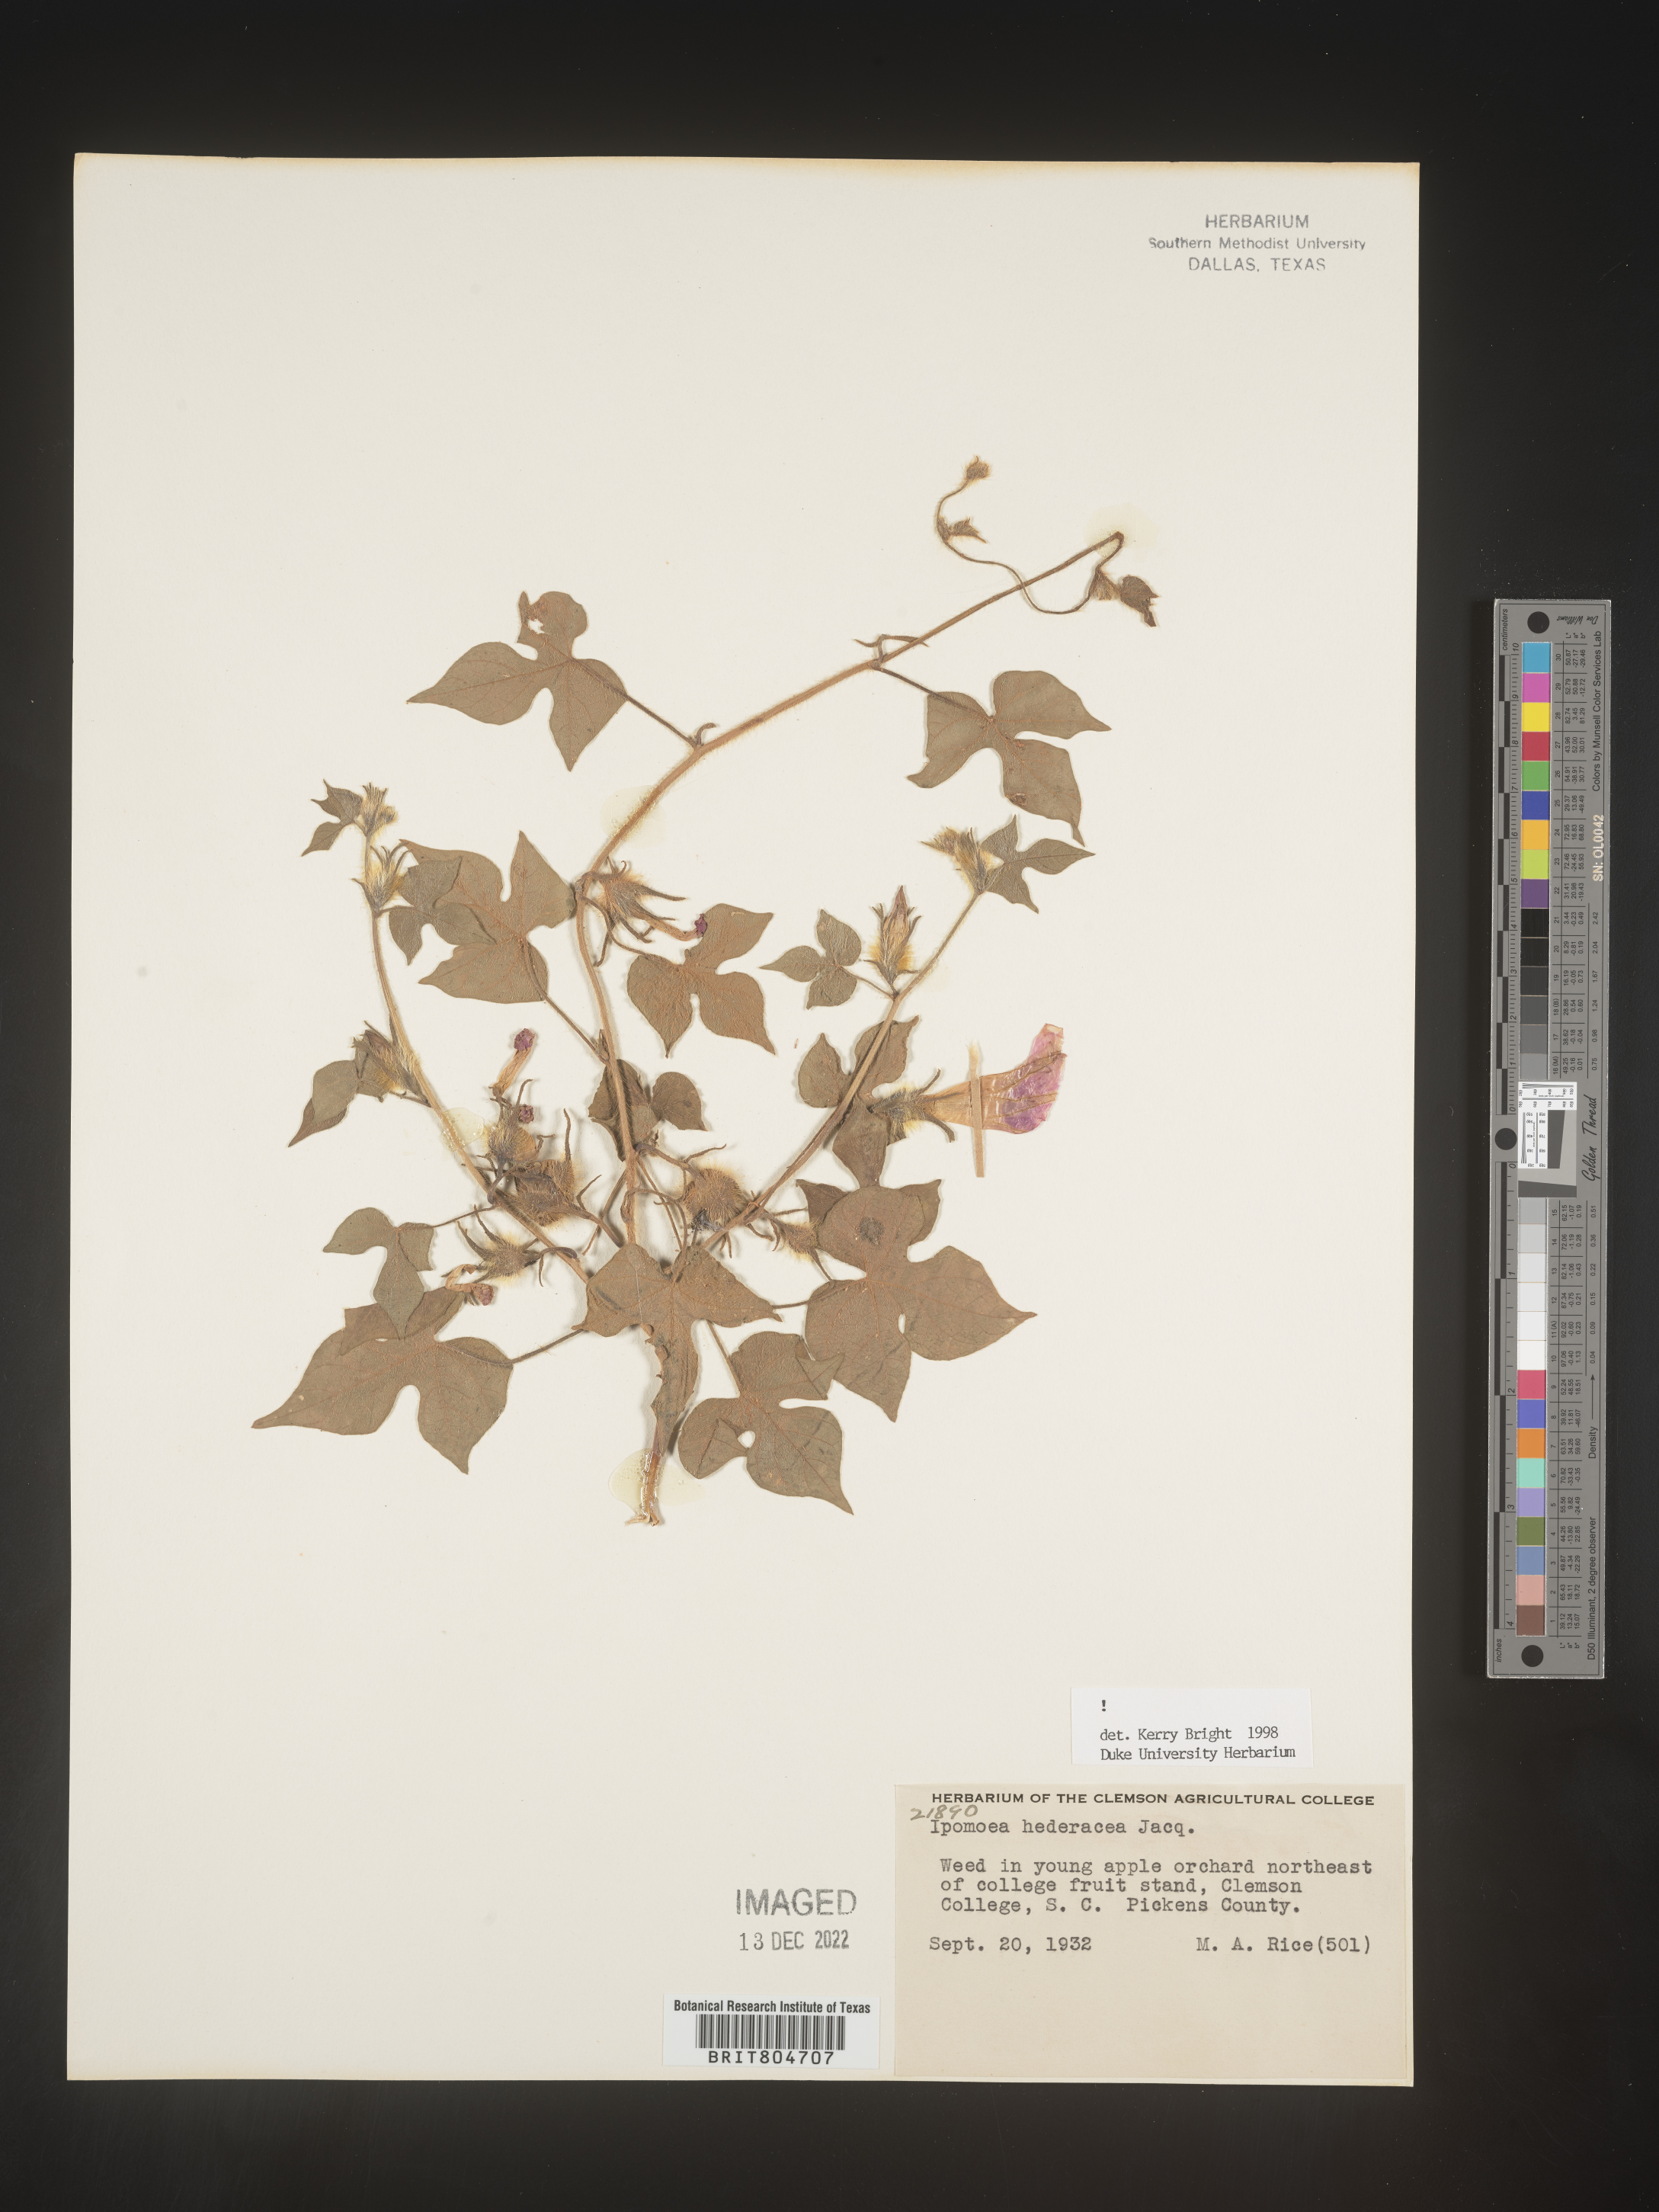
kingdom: Plantae
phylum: Tracheophyta
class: Magnoliopsida
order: Solanales
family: Convolvulaceae
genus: Ipomoea
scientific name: Ipomoea hederacea
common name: Ivy-leaved morning-glory
